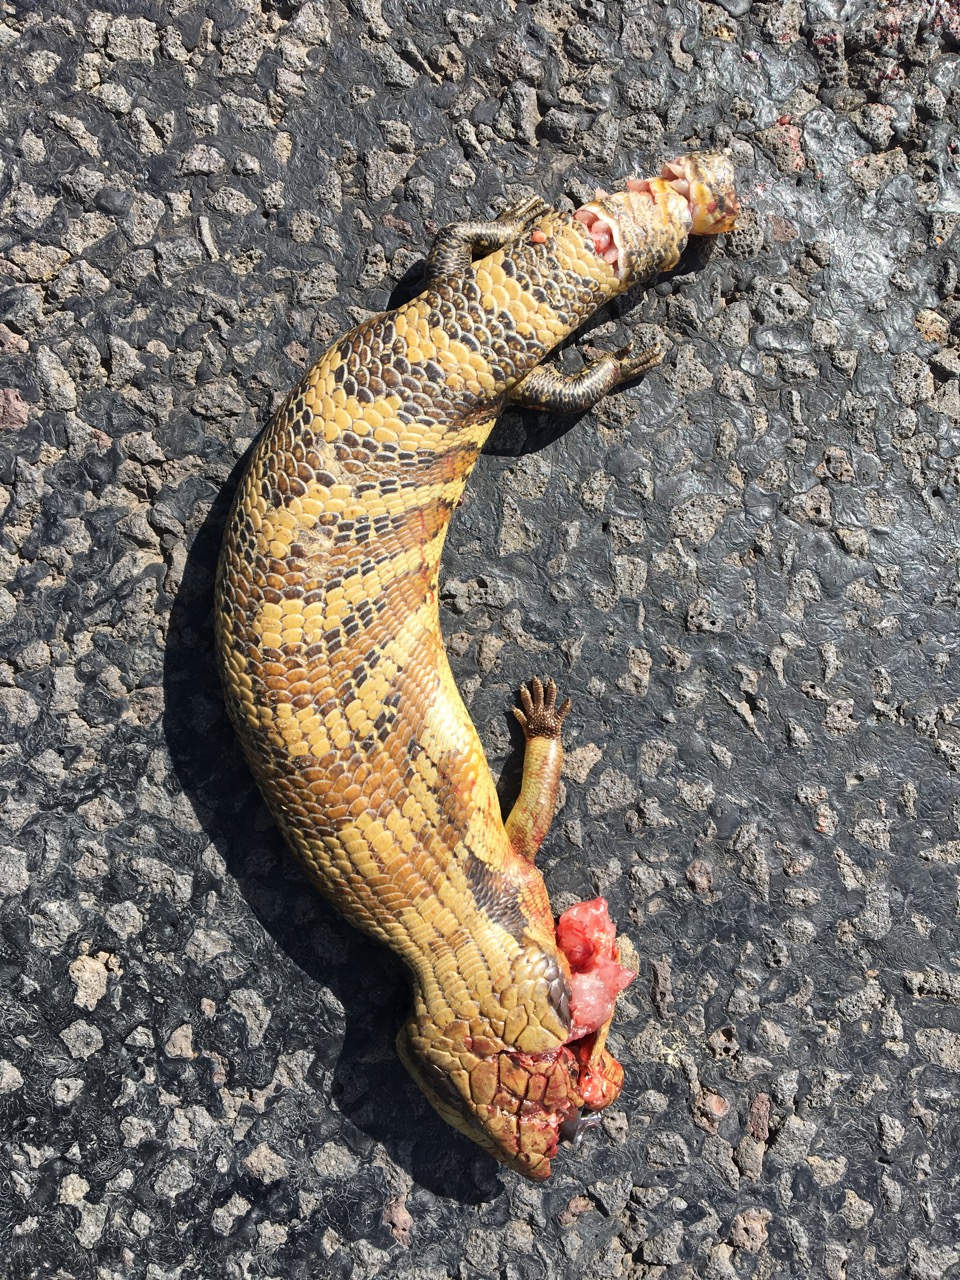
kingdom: Animalia
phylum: Chordata
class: Squamata
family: Scincidae
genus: Tiliqua
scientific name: Tiliqua
